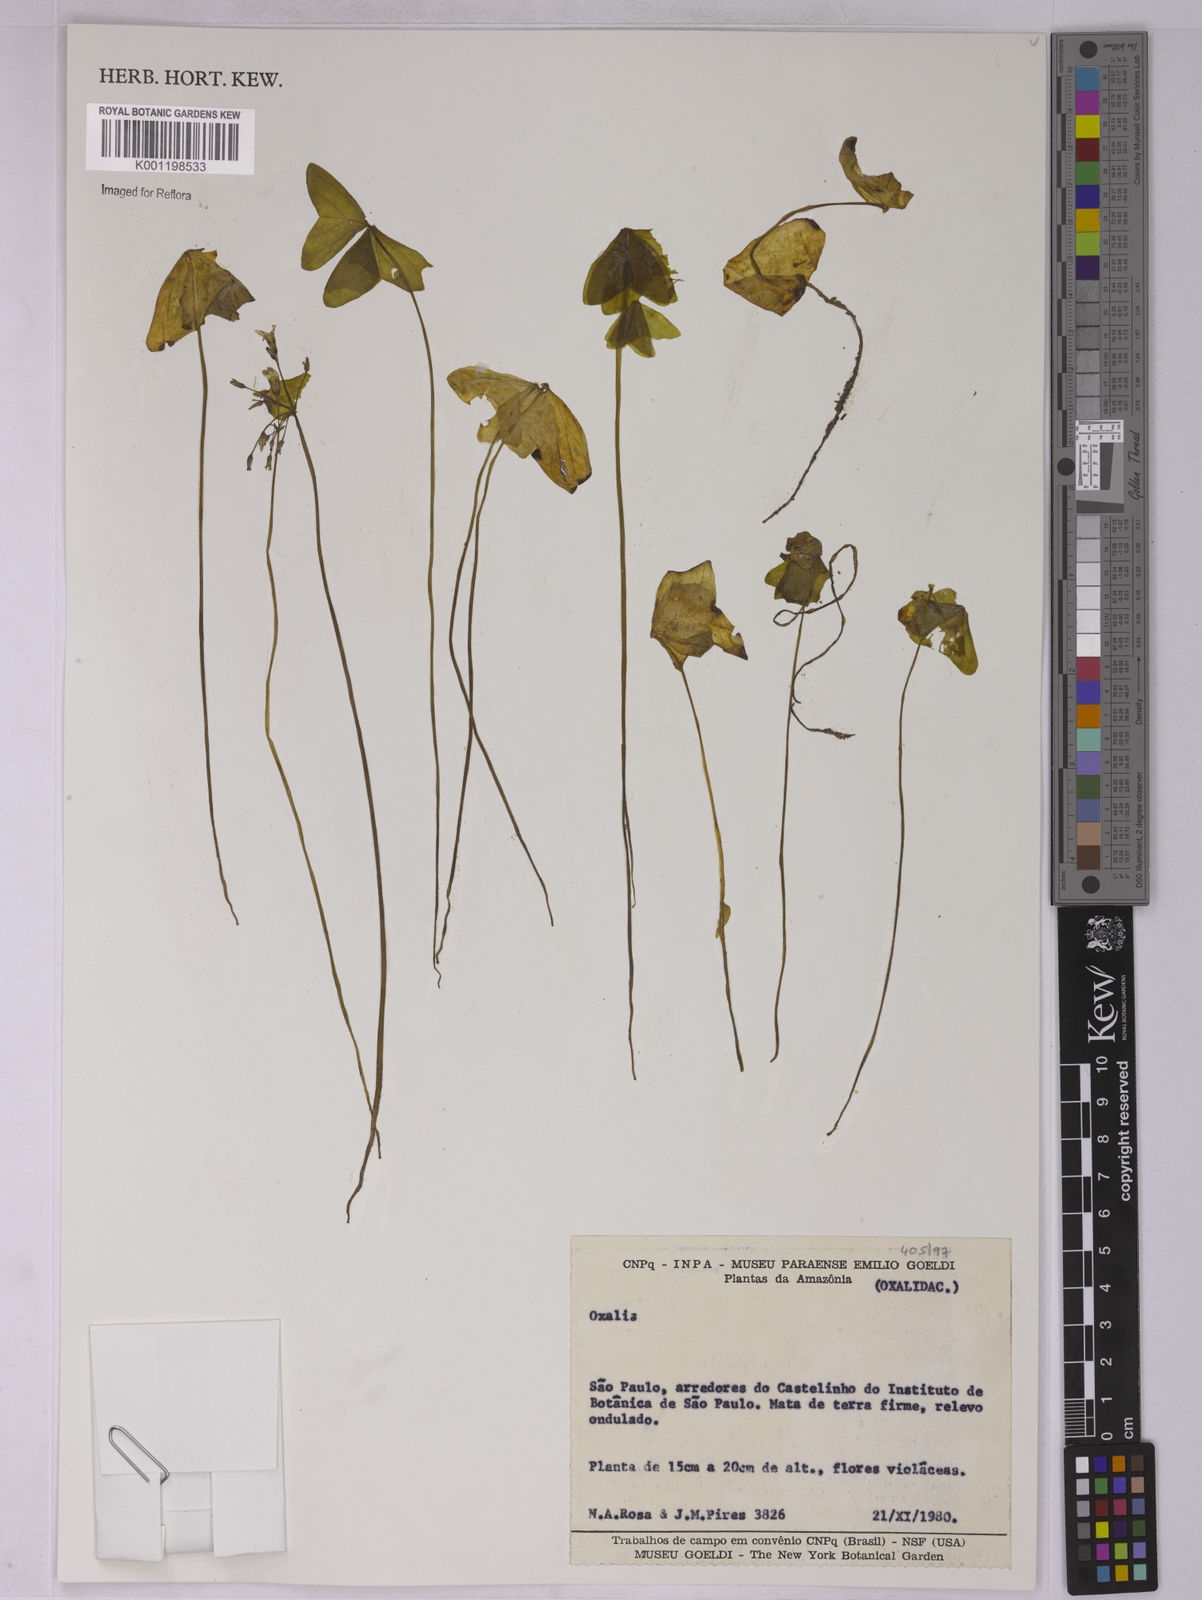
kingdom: Plantae
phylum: Tracheophyta
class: Magnoliopsida
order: Oxalidales
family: Oxalidaceae
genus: Oxalis
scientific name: Oxalis
